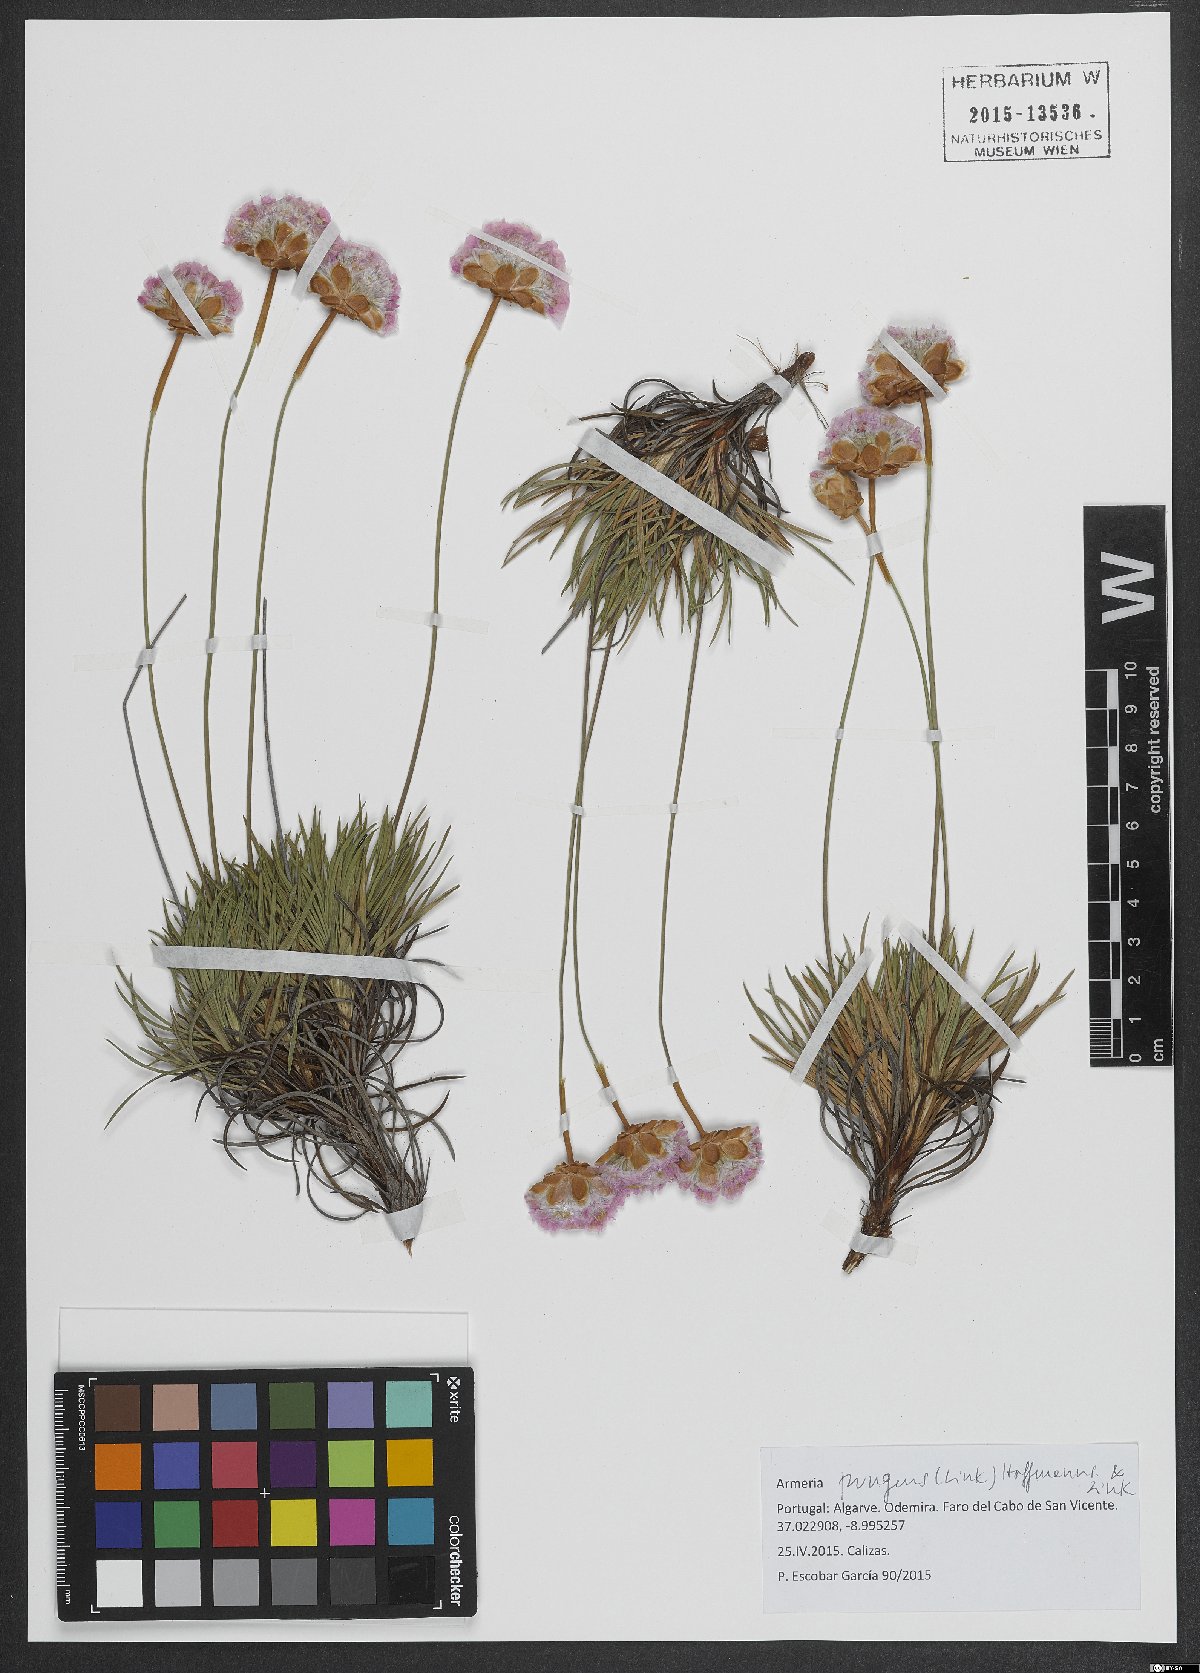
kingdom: Plantae
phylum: Tracheophyta
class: Magnoliopsida
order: Caryophyllales
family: Plumbaginaceae
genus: Armeria
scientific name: Armeria pungens
